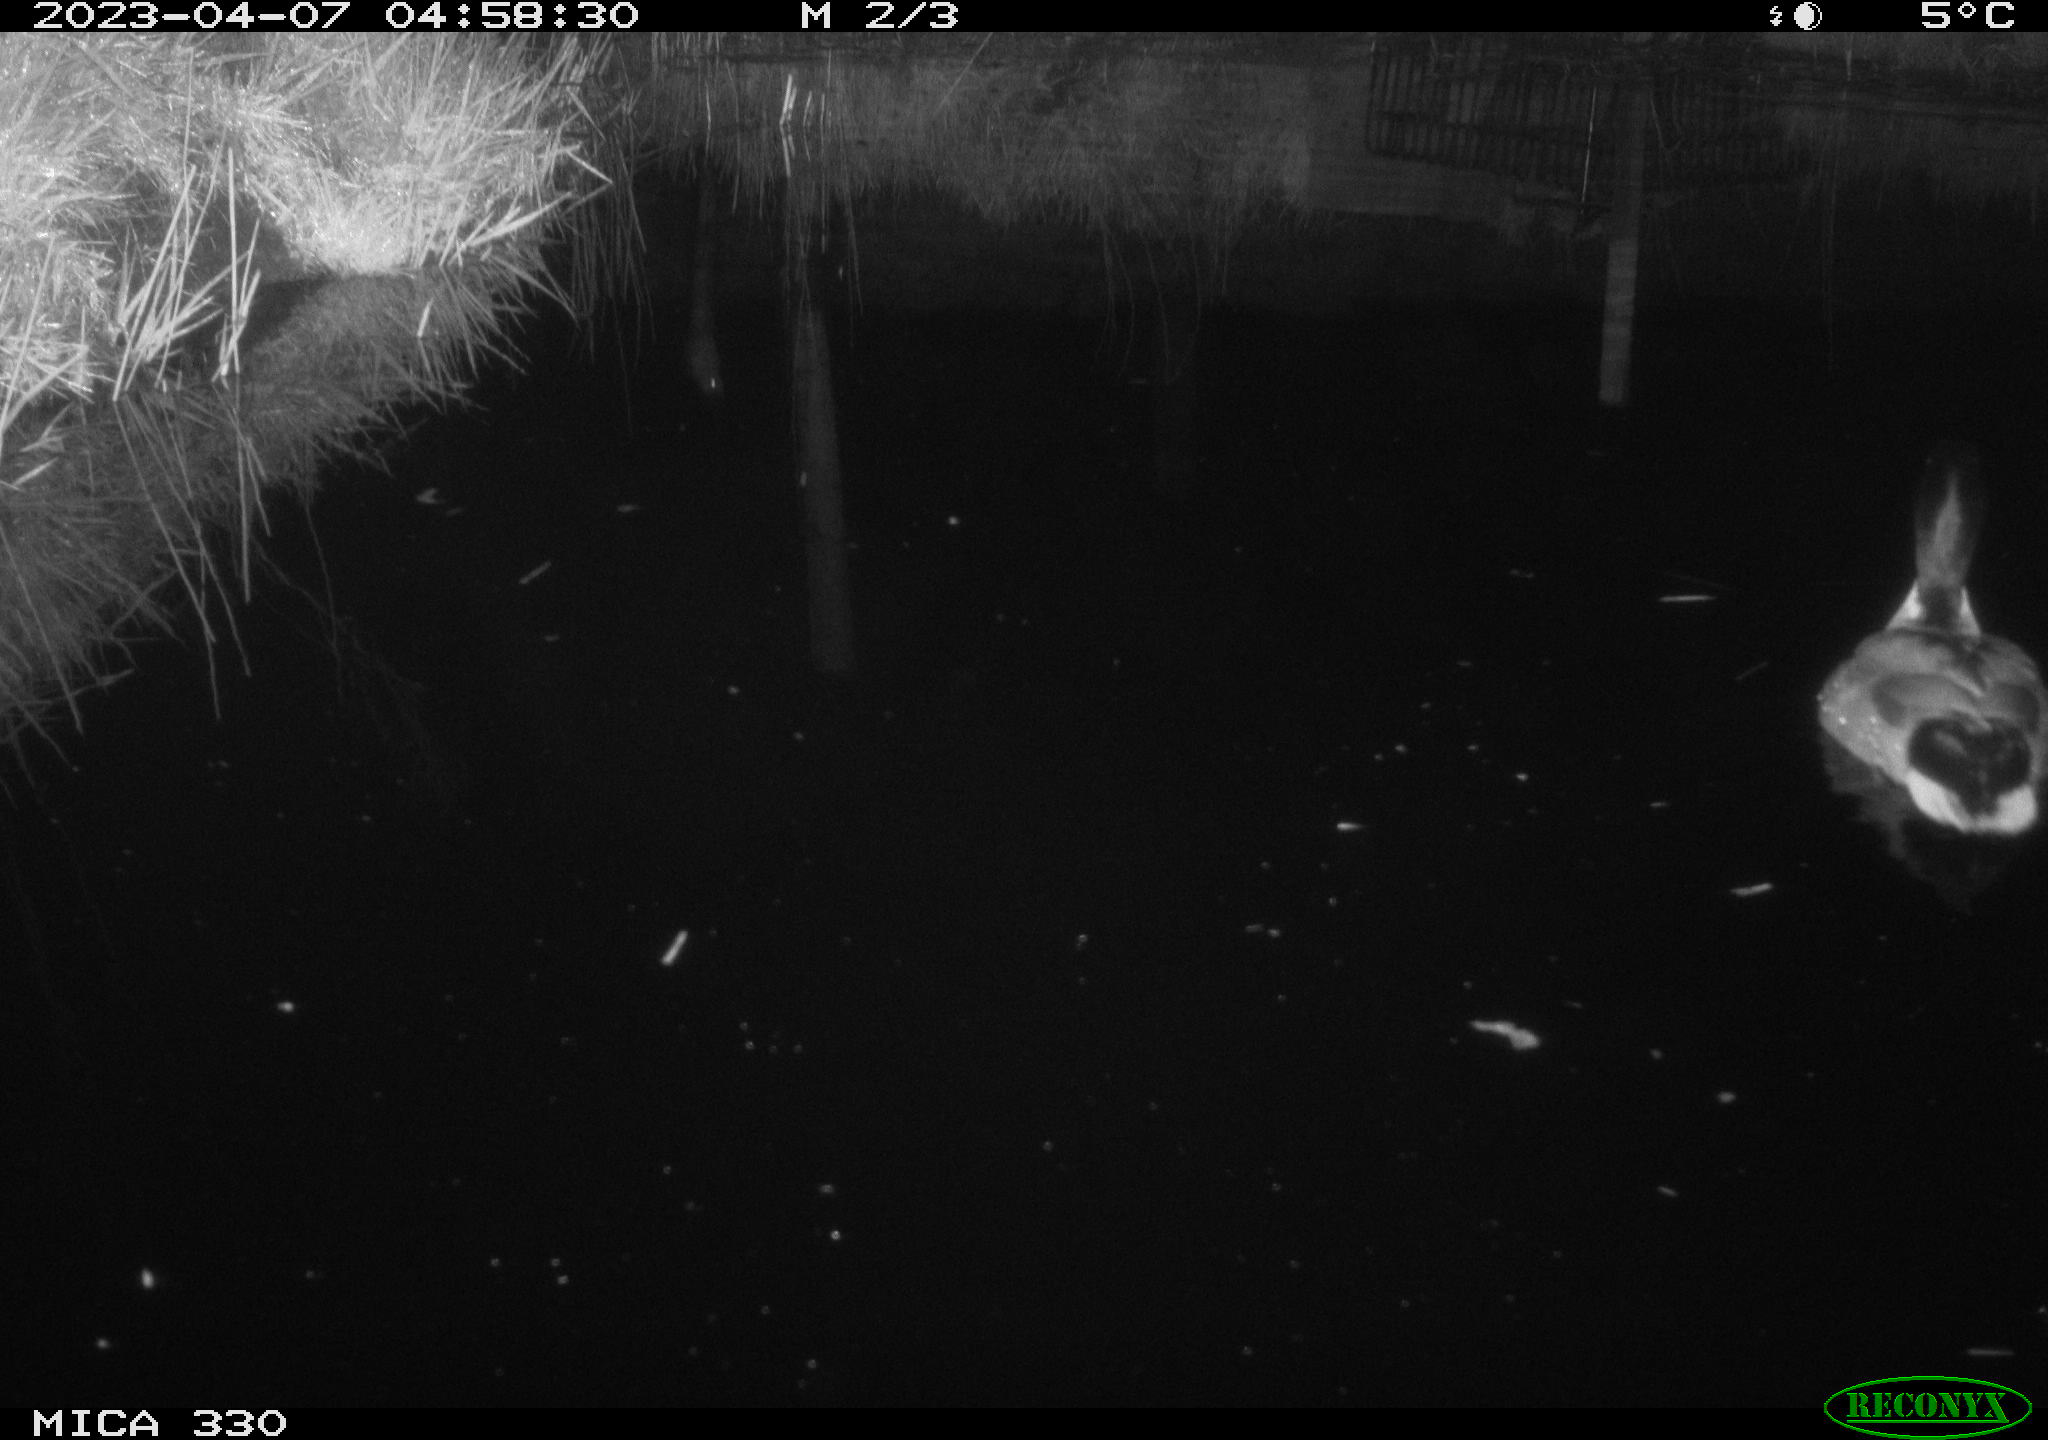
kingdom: Animalia
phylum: Chordata
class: Aves
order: Anseriformes
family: Anatidae
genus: Anas
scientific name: Anas
